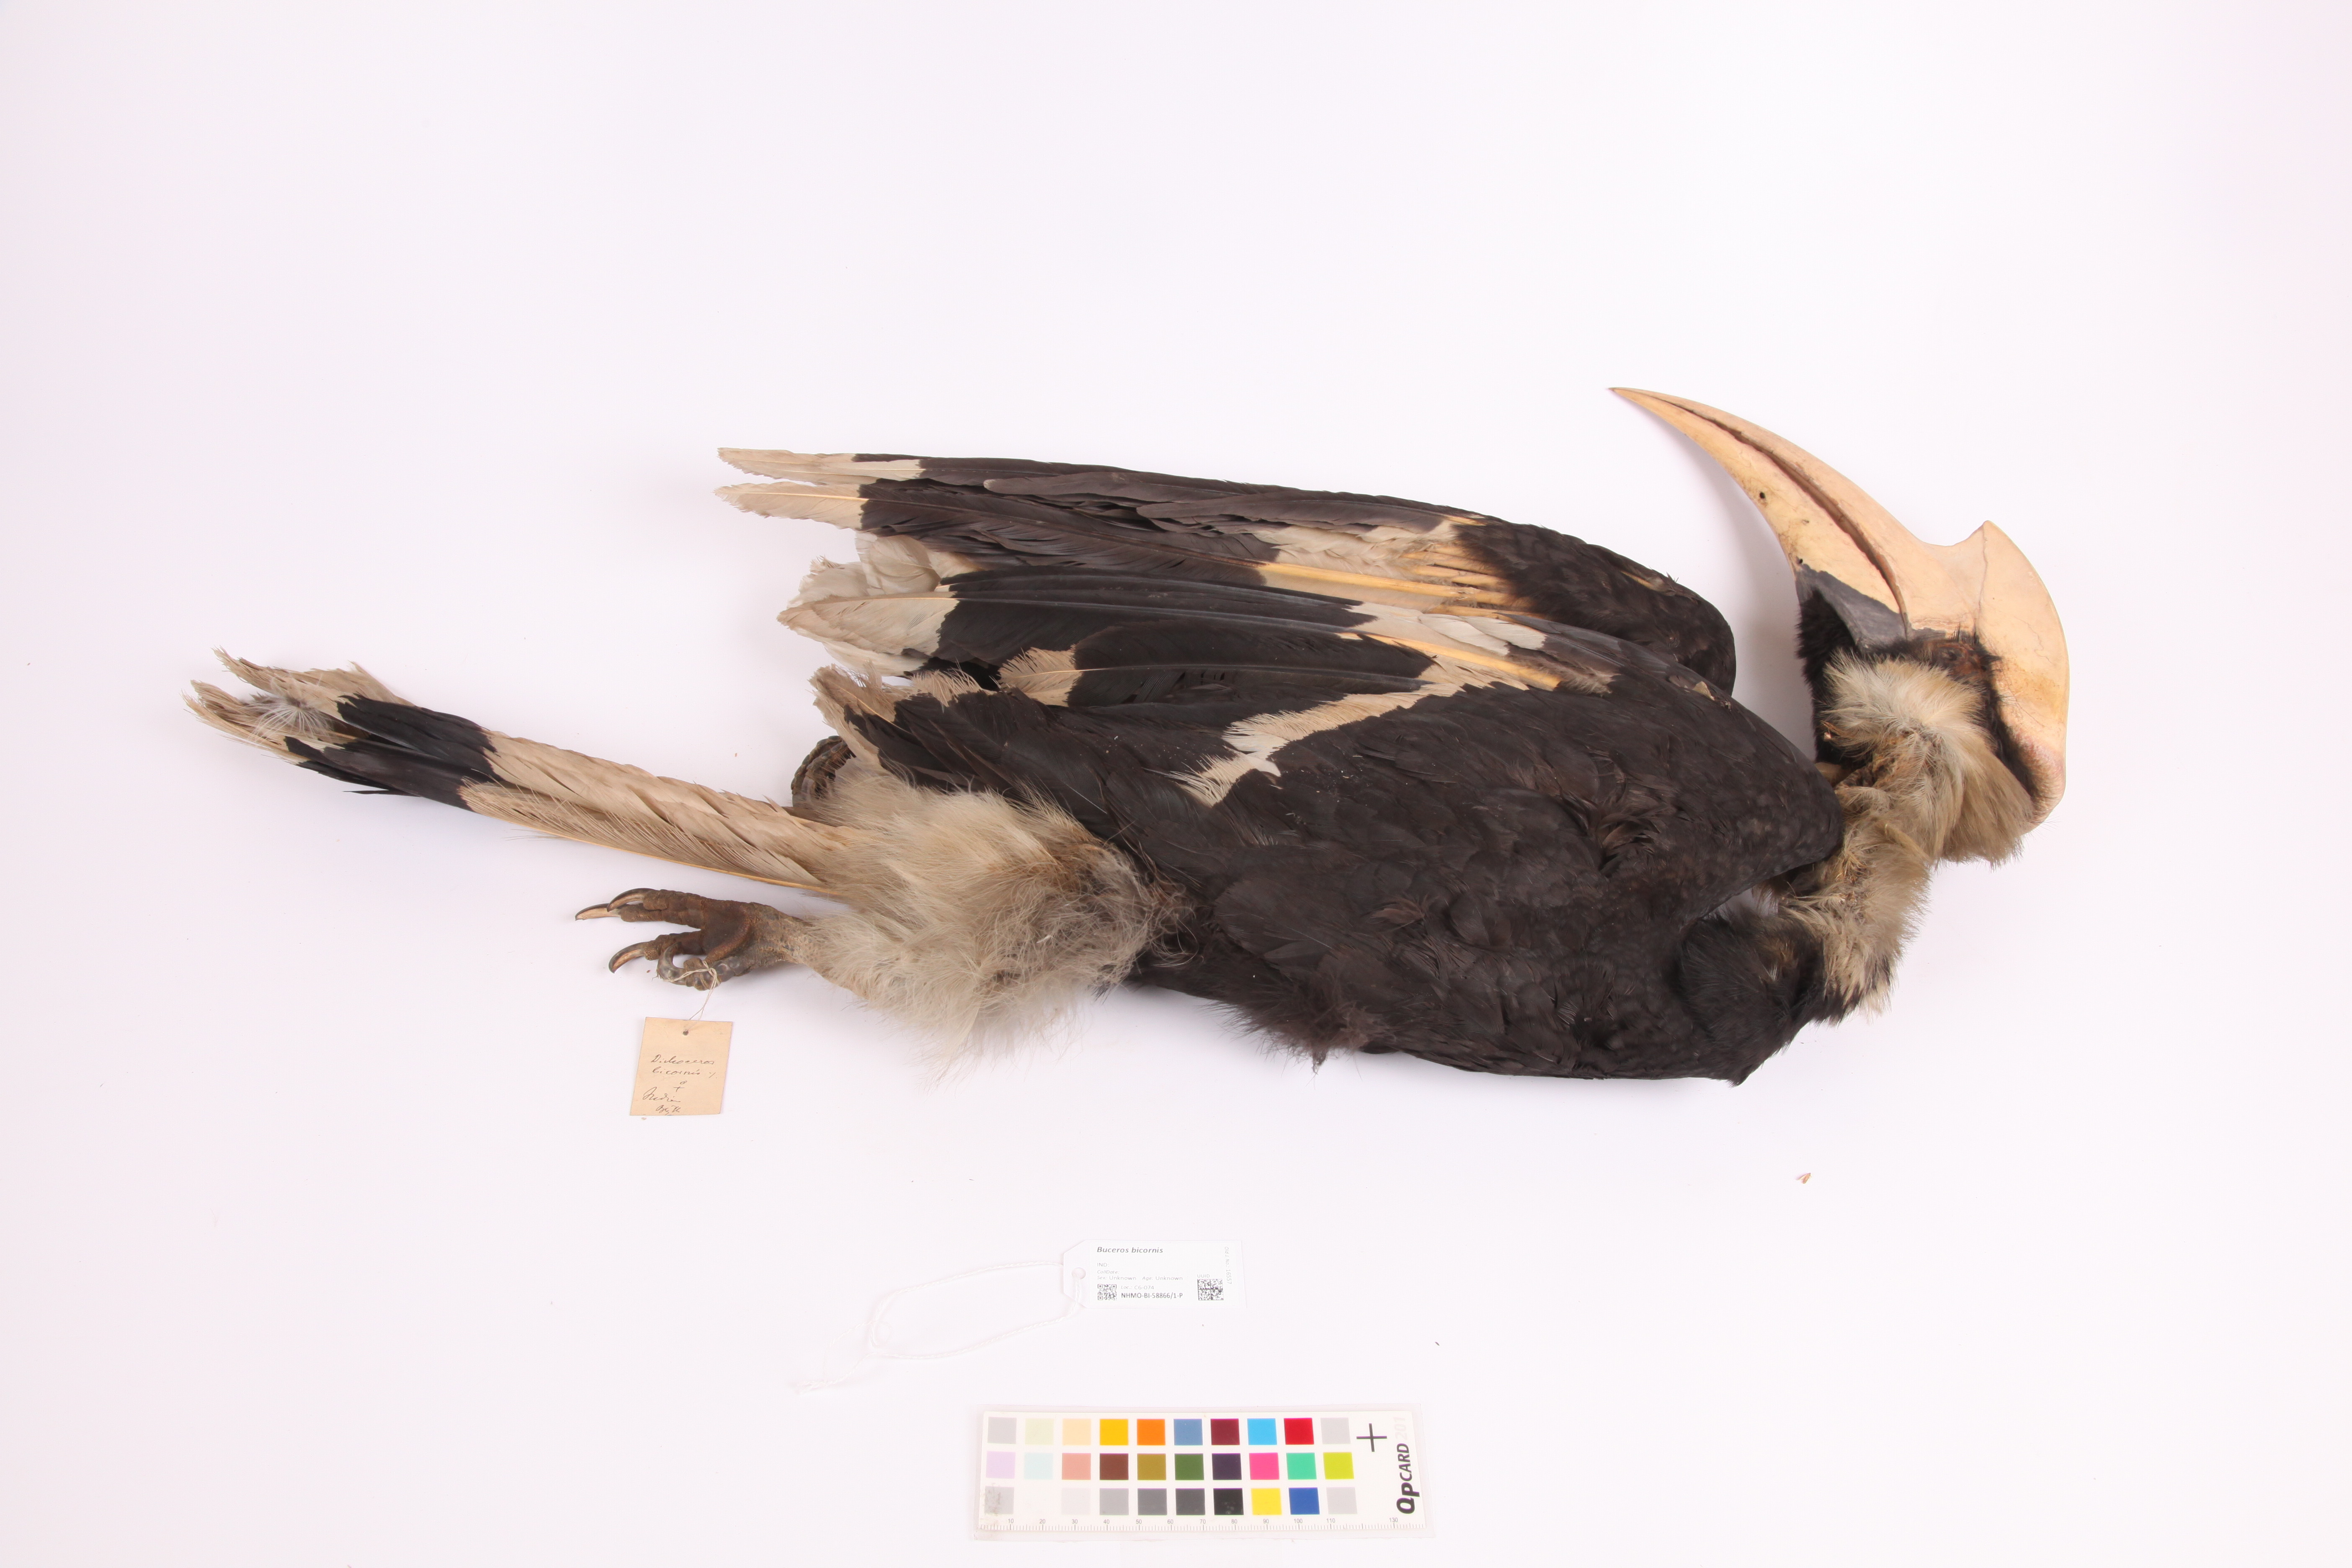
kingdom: Animalia
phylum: Chordata
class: Aves
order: Bucerotiformes
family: Bucerotidae
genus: Buceros
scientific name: Buceros bicornis
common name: Great hornbill
